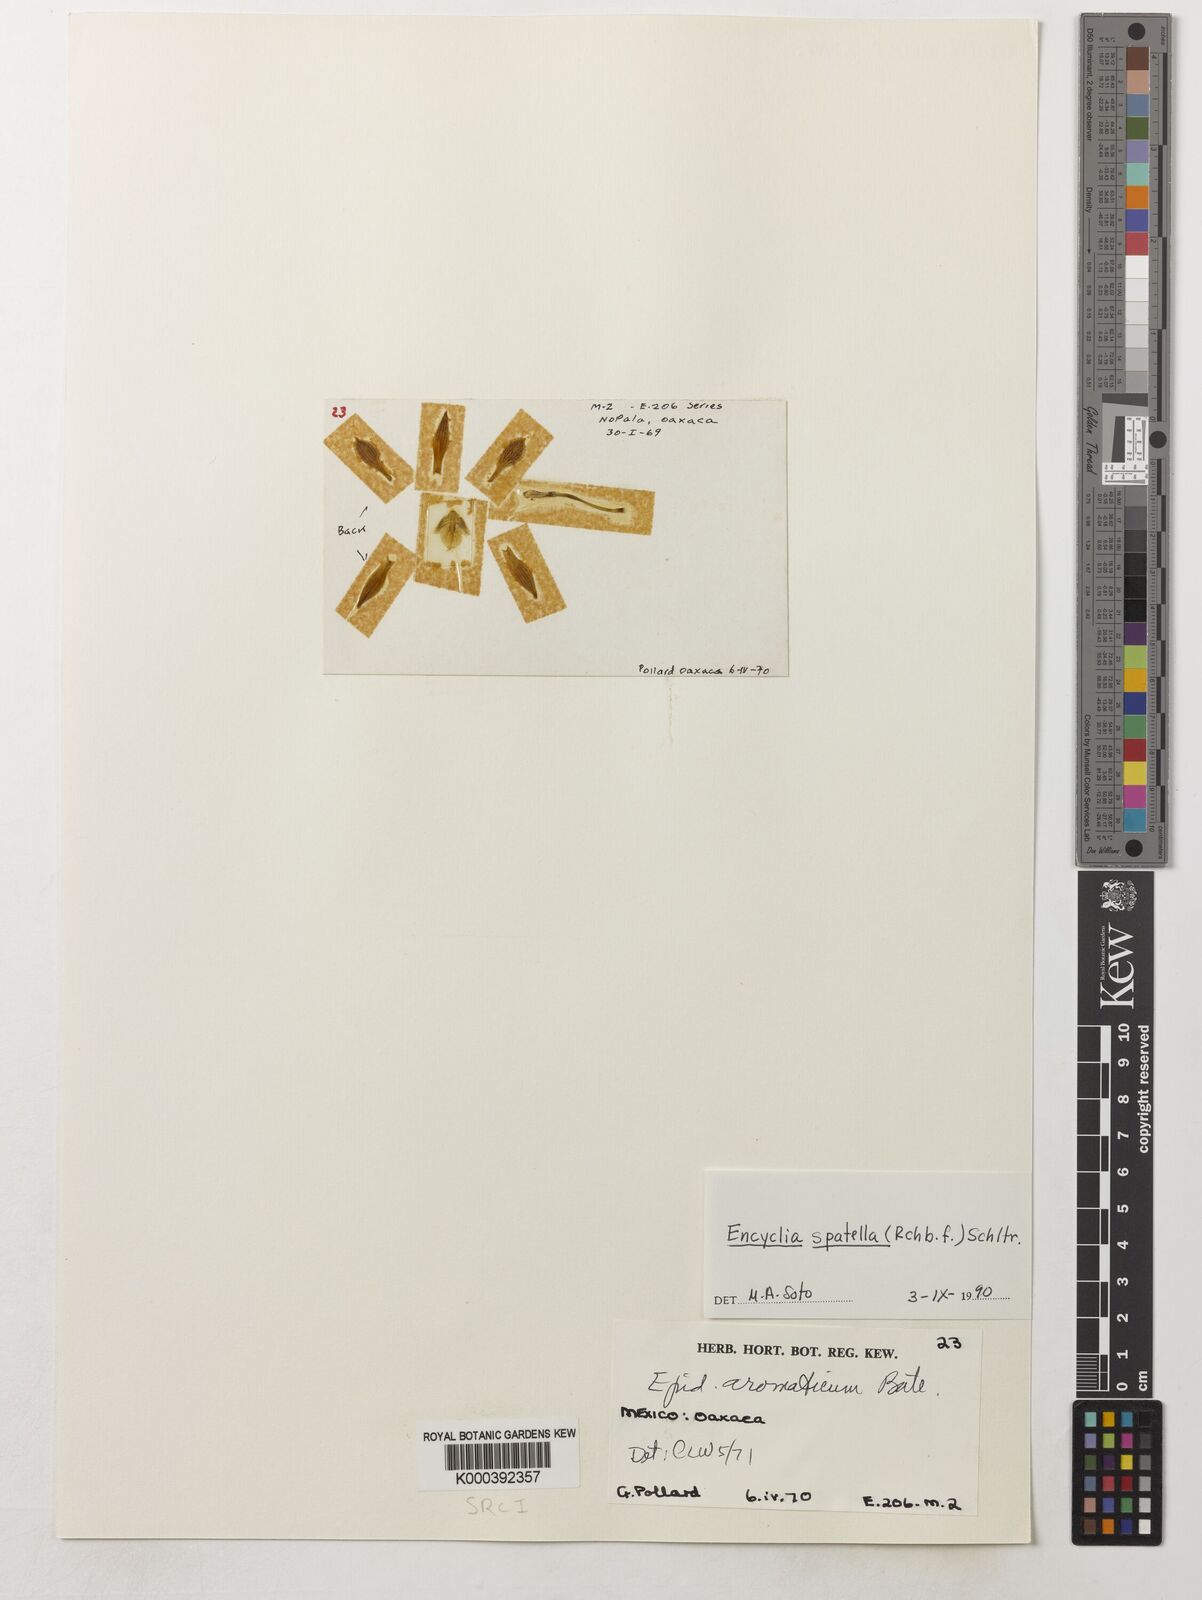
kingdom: Plantae
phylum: Tracheophyta
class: Liliopsida
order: Asparagales
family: Orchidaceae
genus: Encyclia
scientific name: Encyclia spatella
